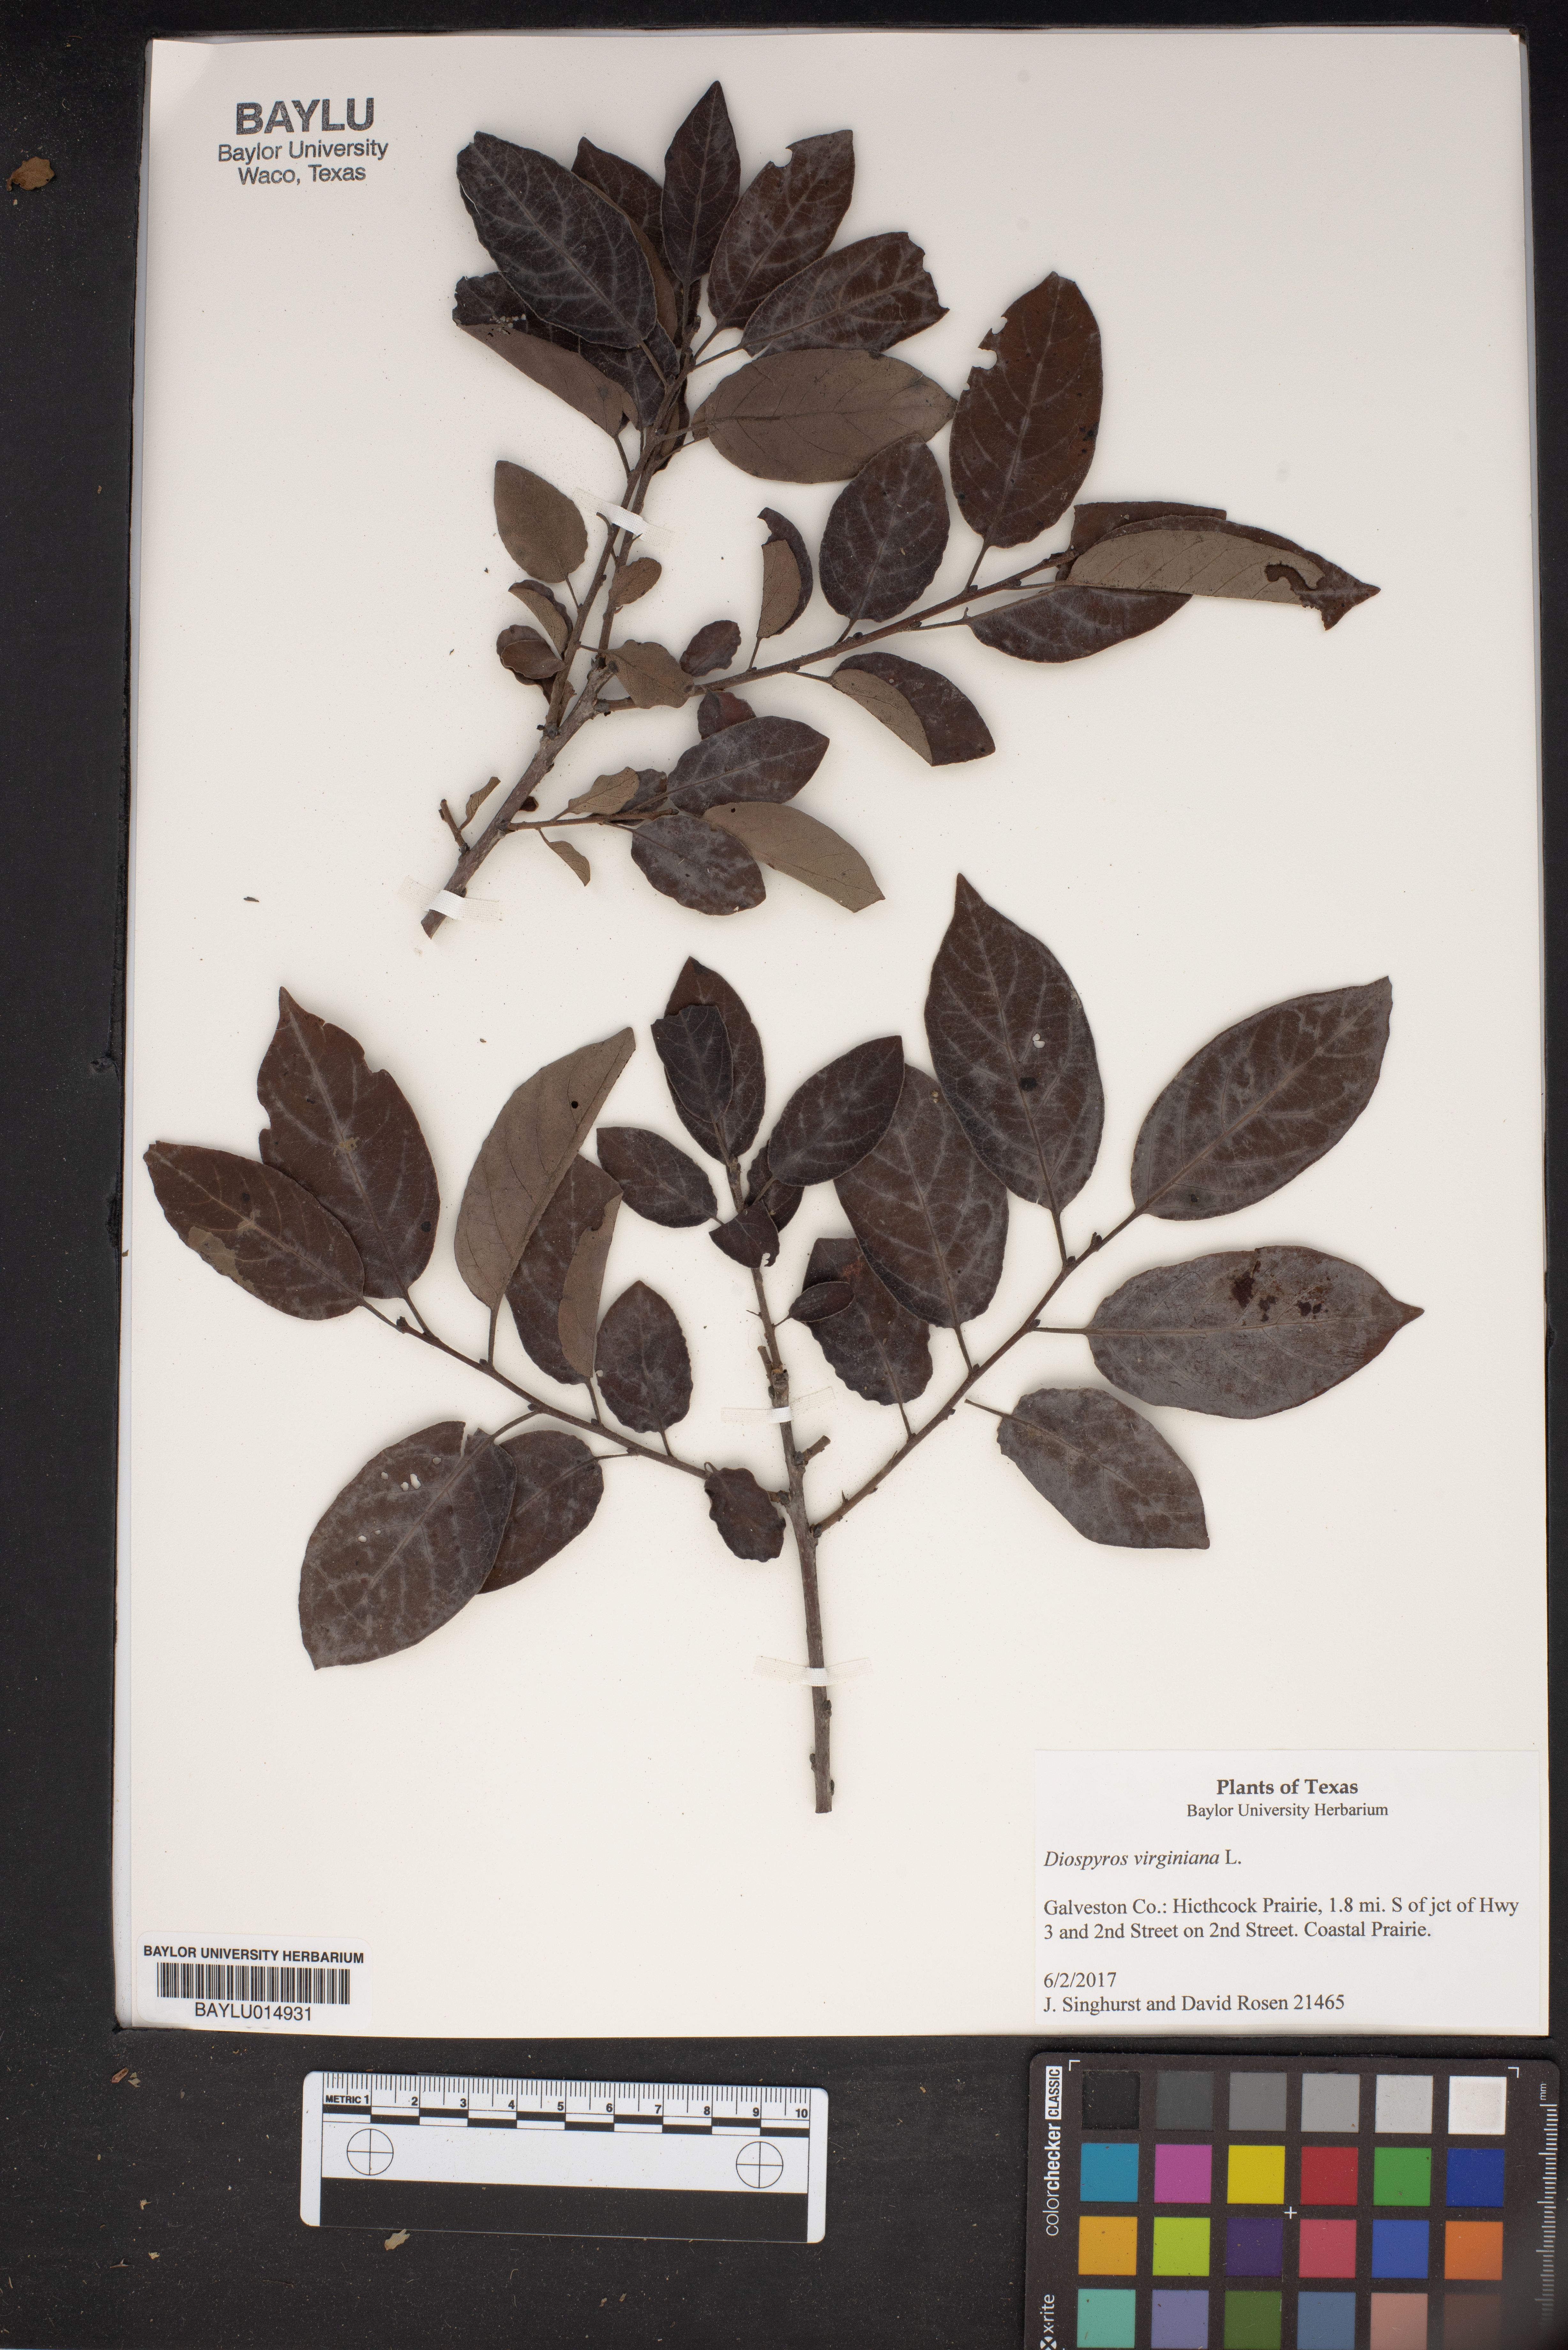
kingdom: Plantae
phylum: Tracheophyta
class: Magnoliopsida
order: Ericales
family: Ebenaceae
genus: Diospyros
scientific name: Diospyros virginiana
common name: Persimmon
